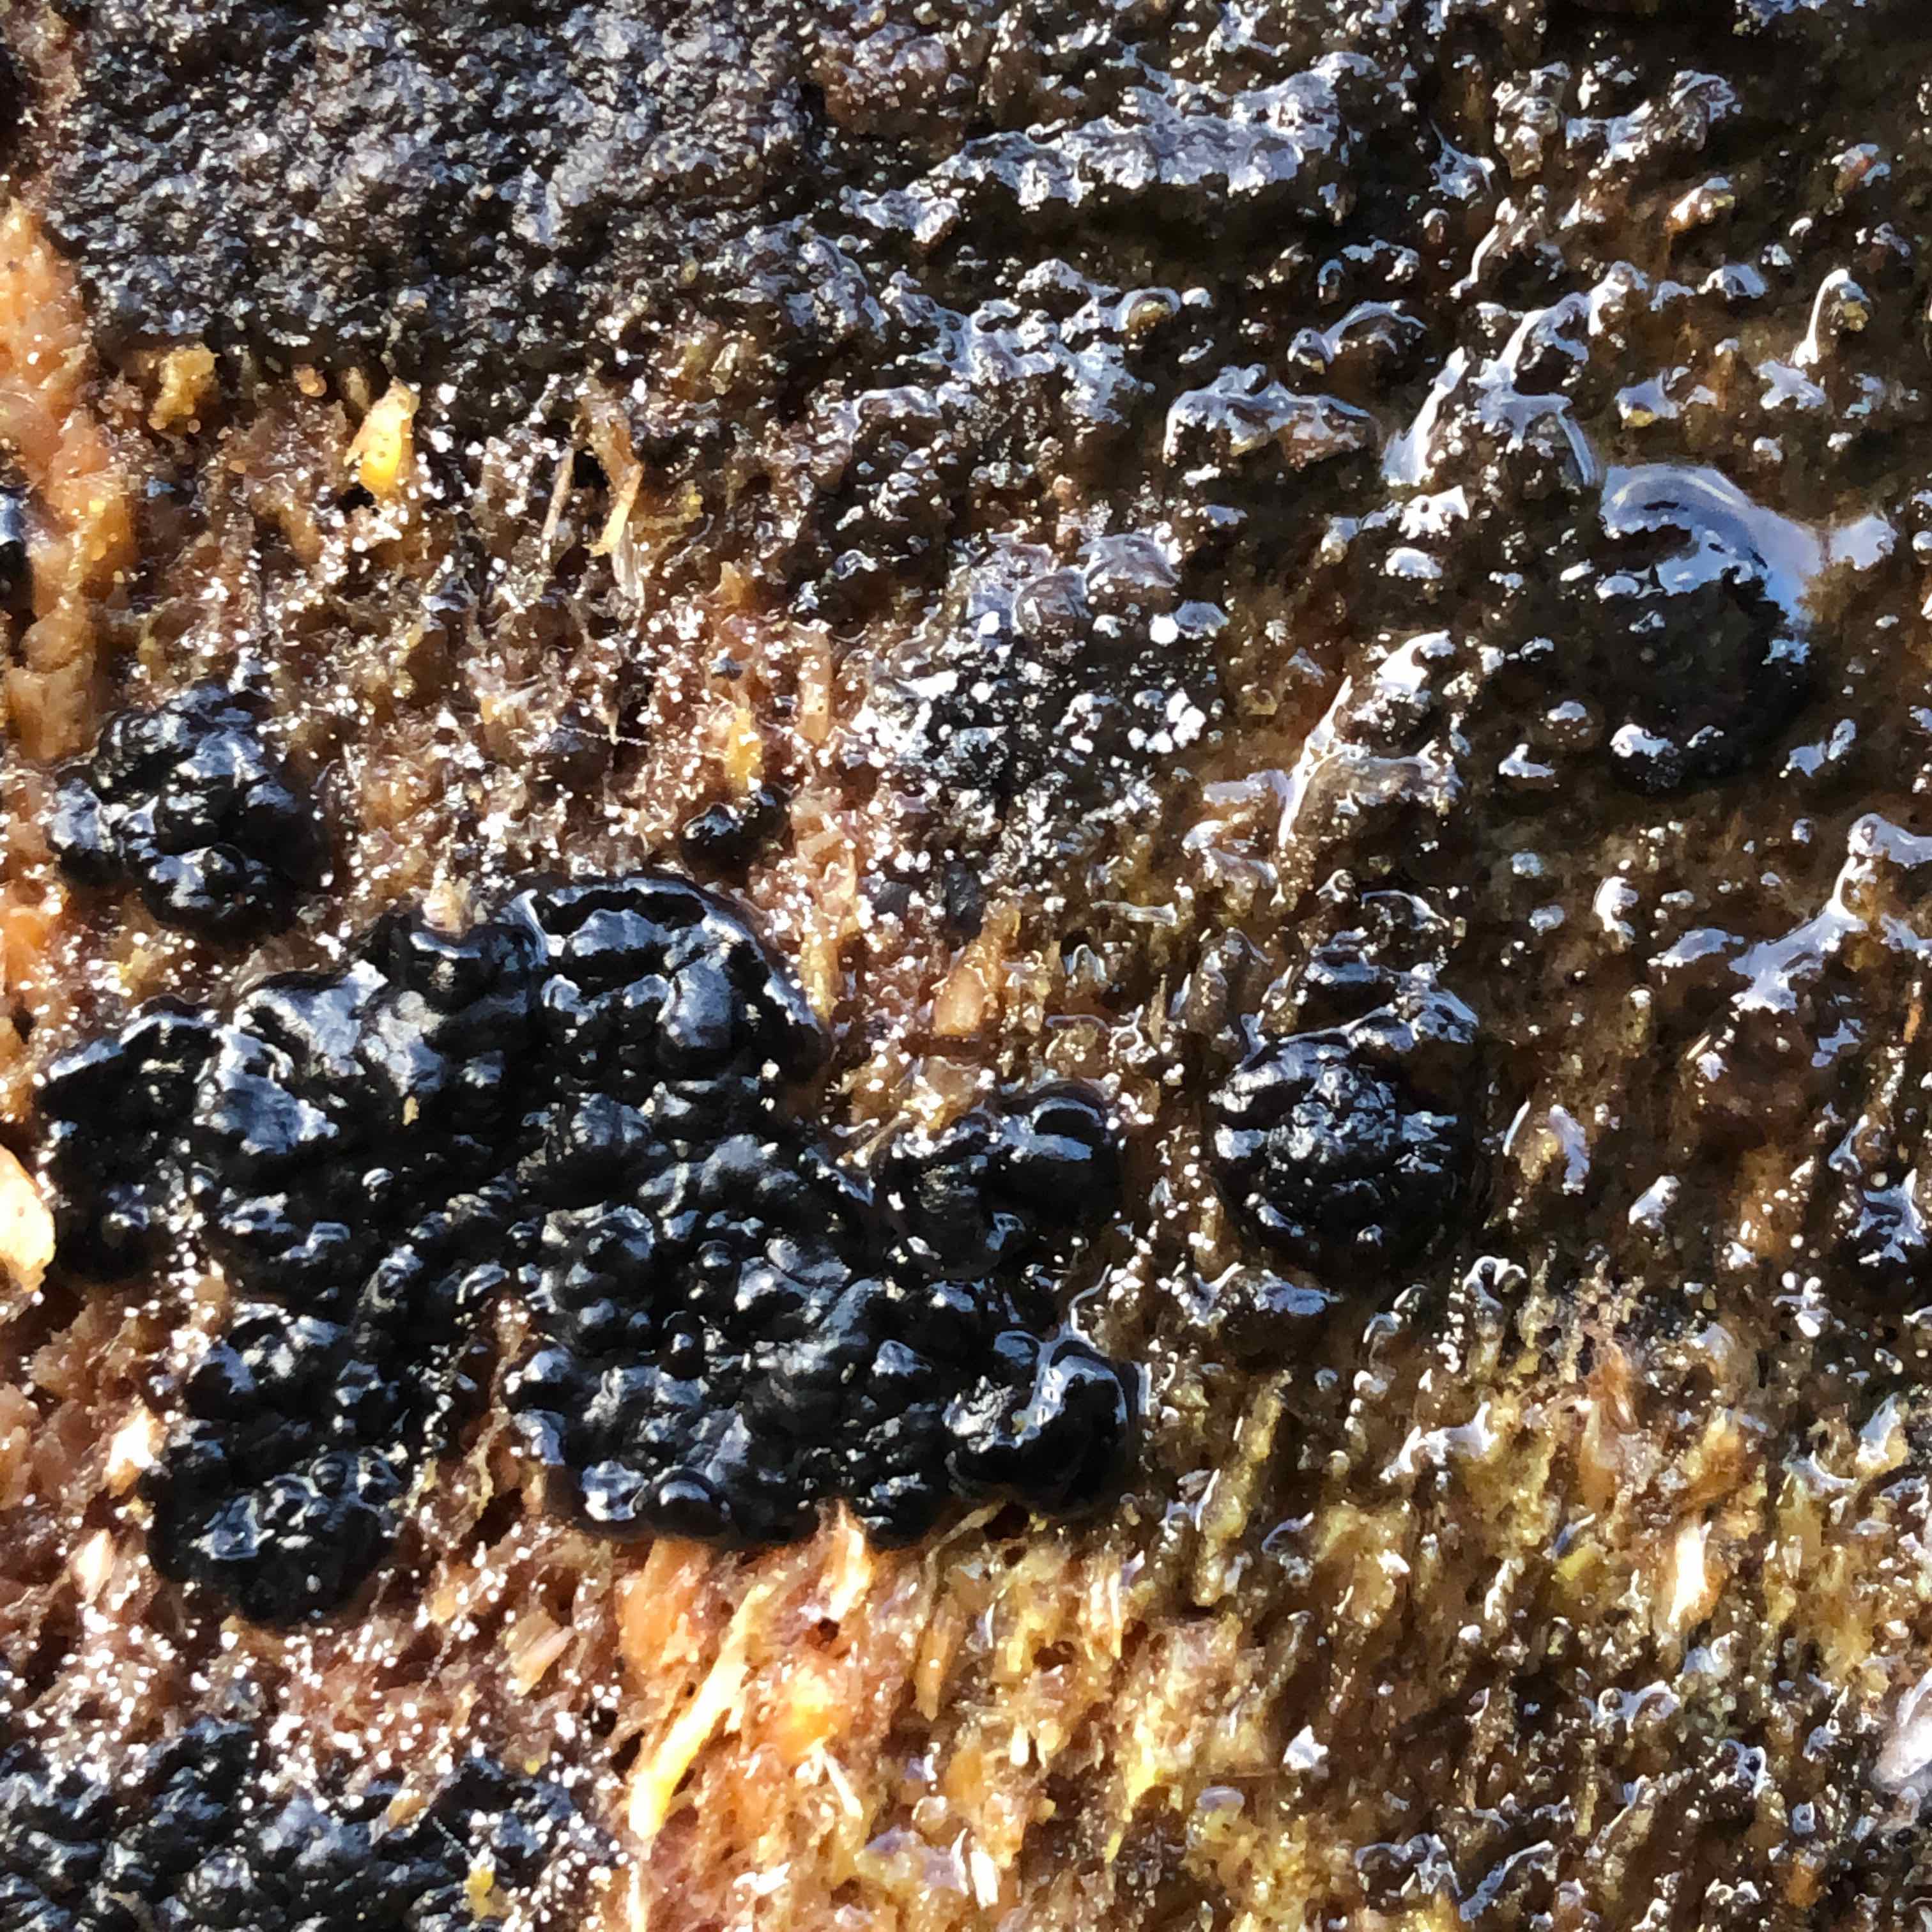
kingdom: Fungi
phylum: Basidiomycota
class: Agaricomycetes
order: Auriculariales
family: Auriculariaceae
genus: Exidia
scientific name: Exidia pithya
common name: gran-bævretop
